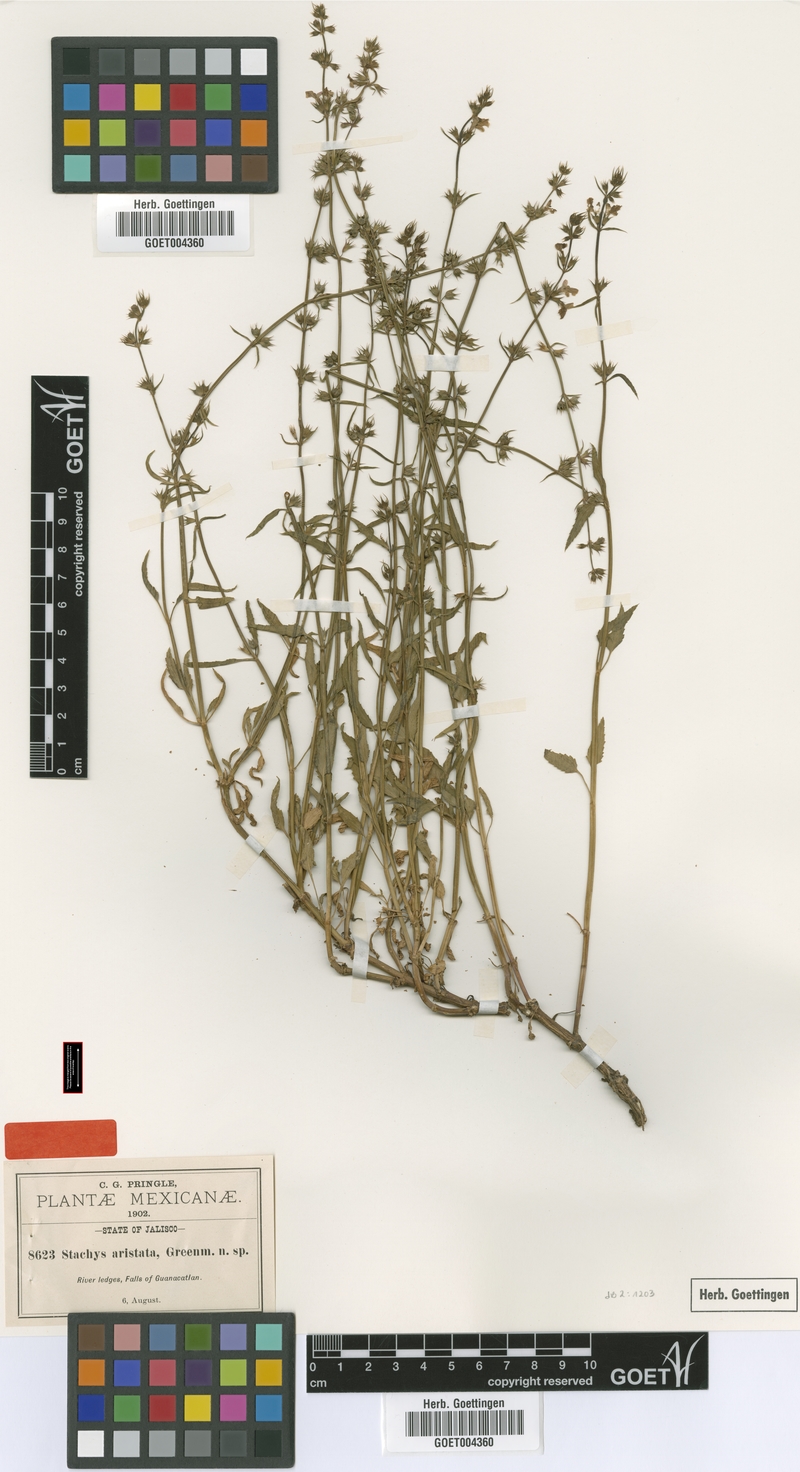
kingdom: Plantae
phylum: Tracheophyta
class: Magnoliopsida
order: Lamiales
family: Lamiaceae
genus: Stachys
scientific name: Stachys aristata
